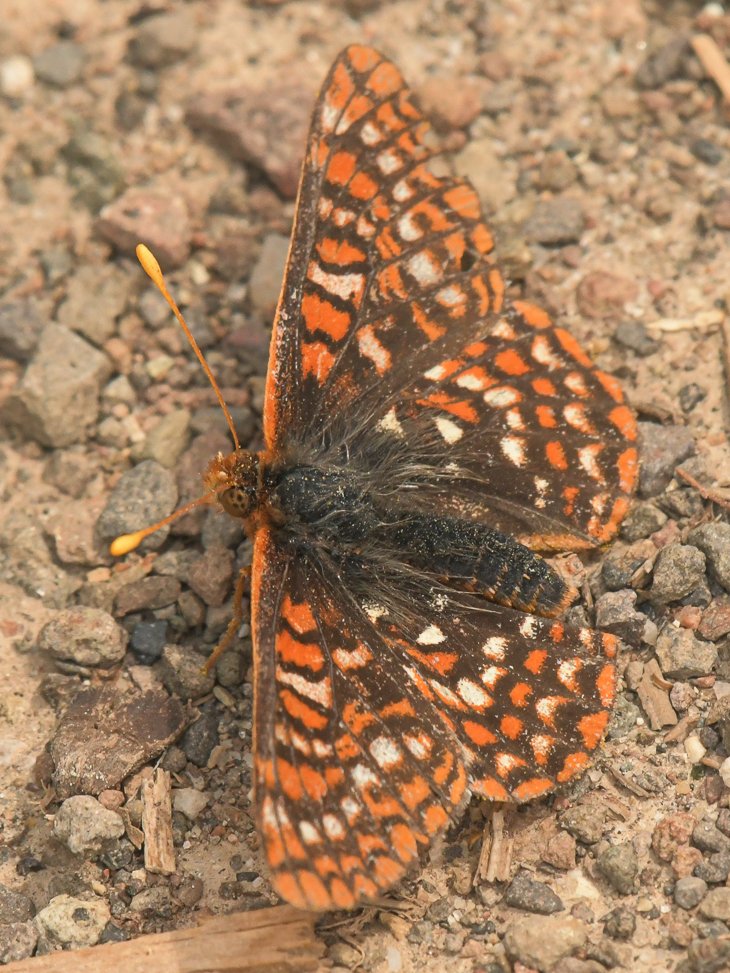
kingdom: Animalia
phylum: Arthropoda
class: Insecta
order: Lepidoptera
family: Nymphalidae
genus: Occidryas
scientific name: Occidryas anicia
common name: Anicia Checkerspot
